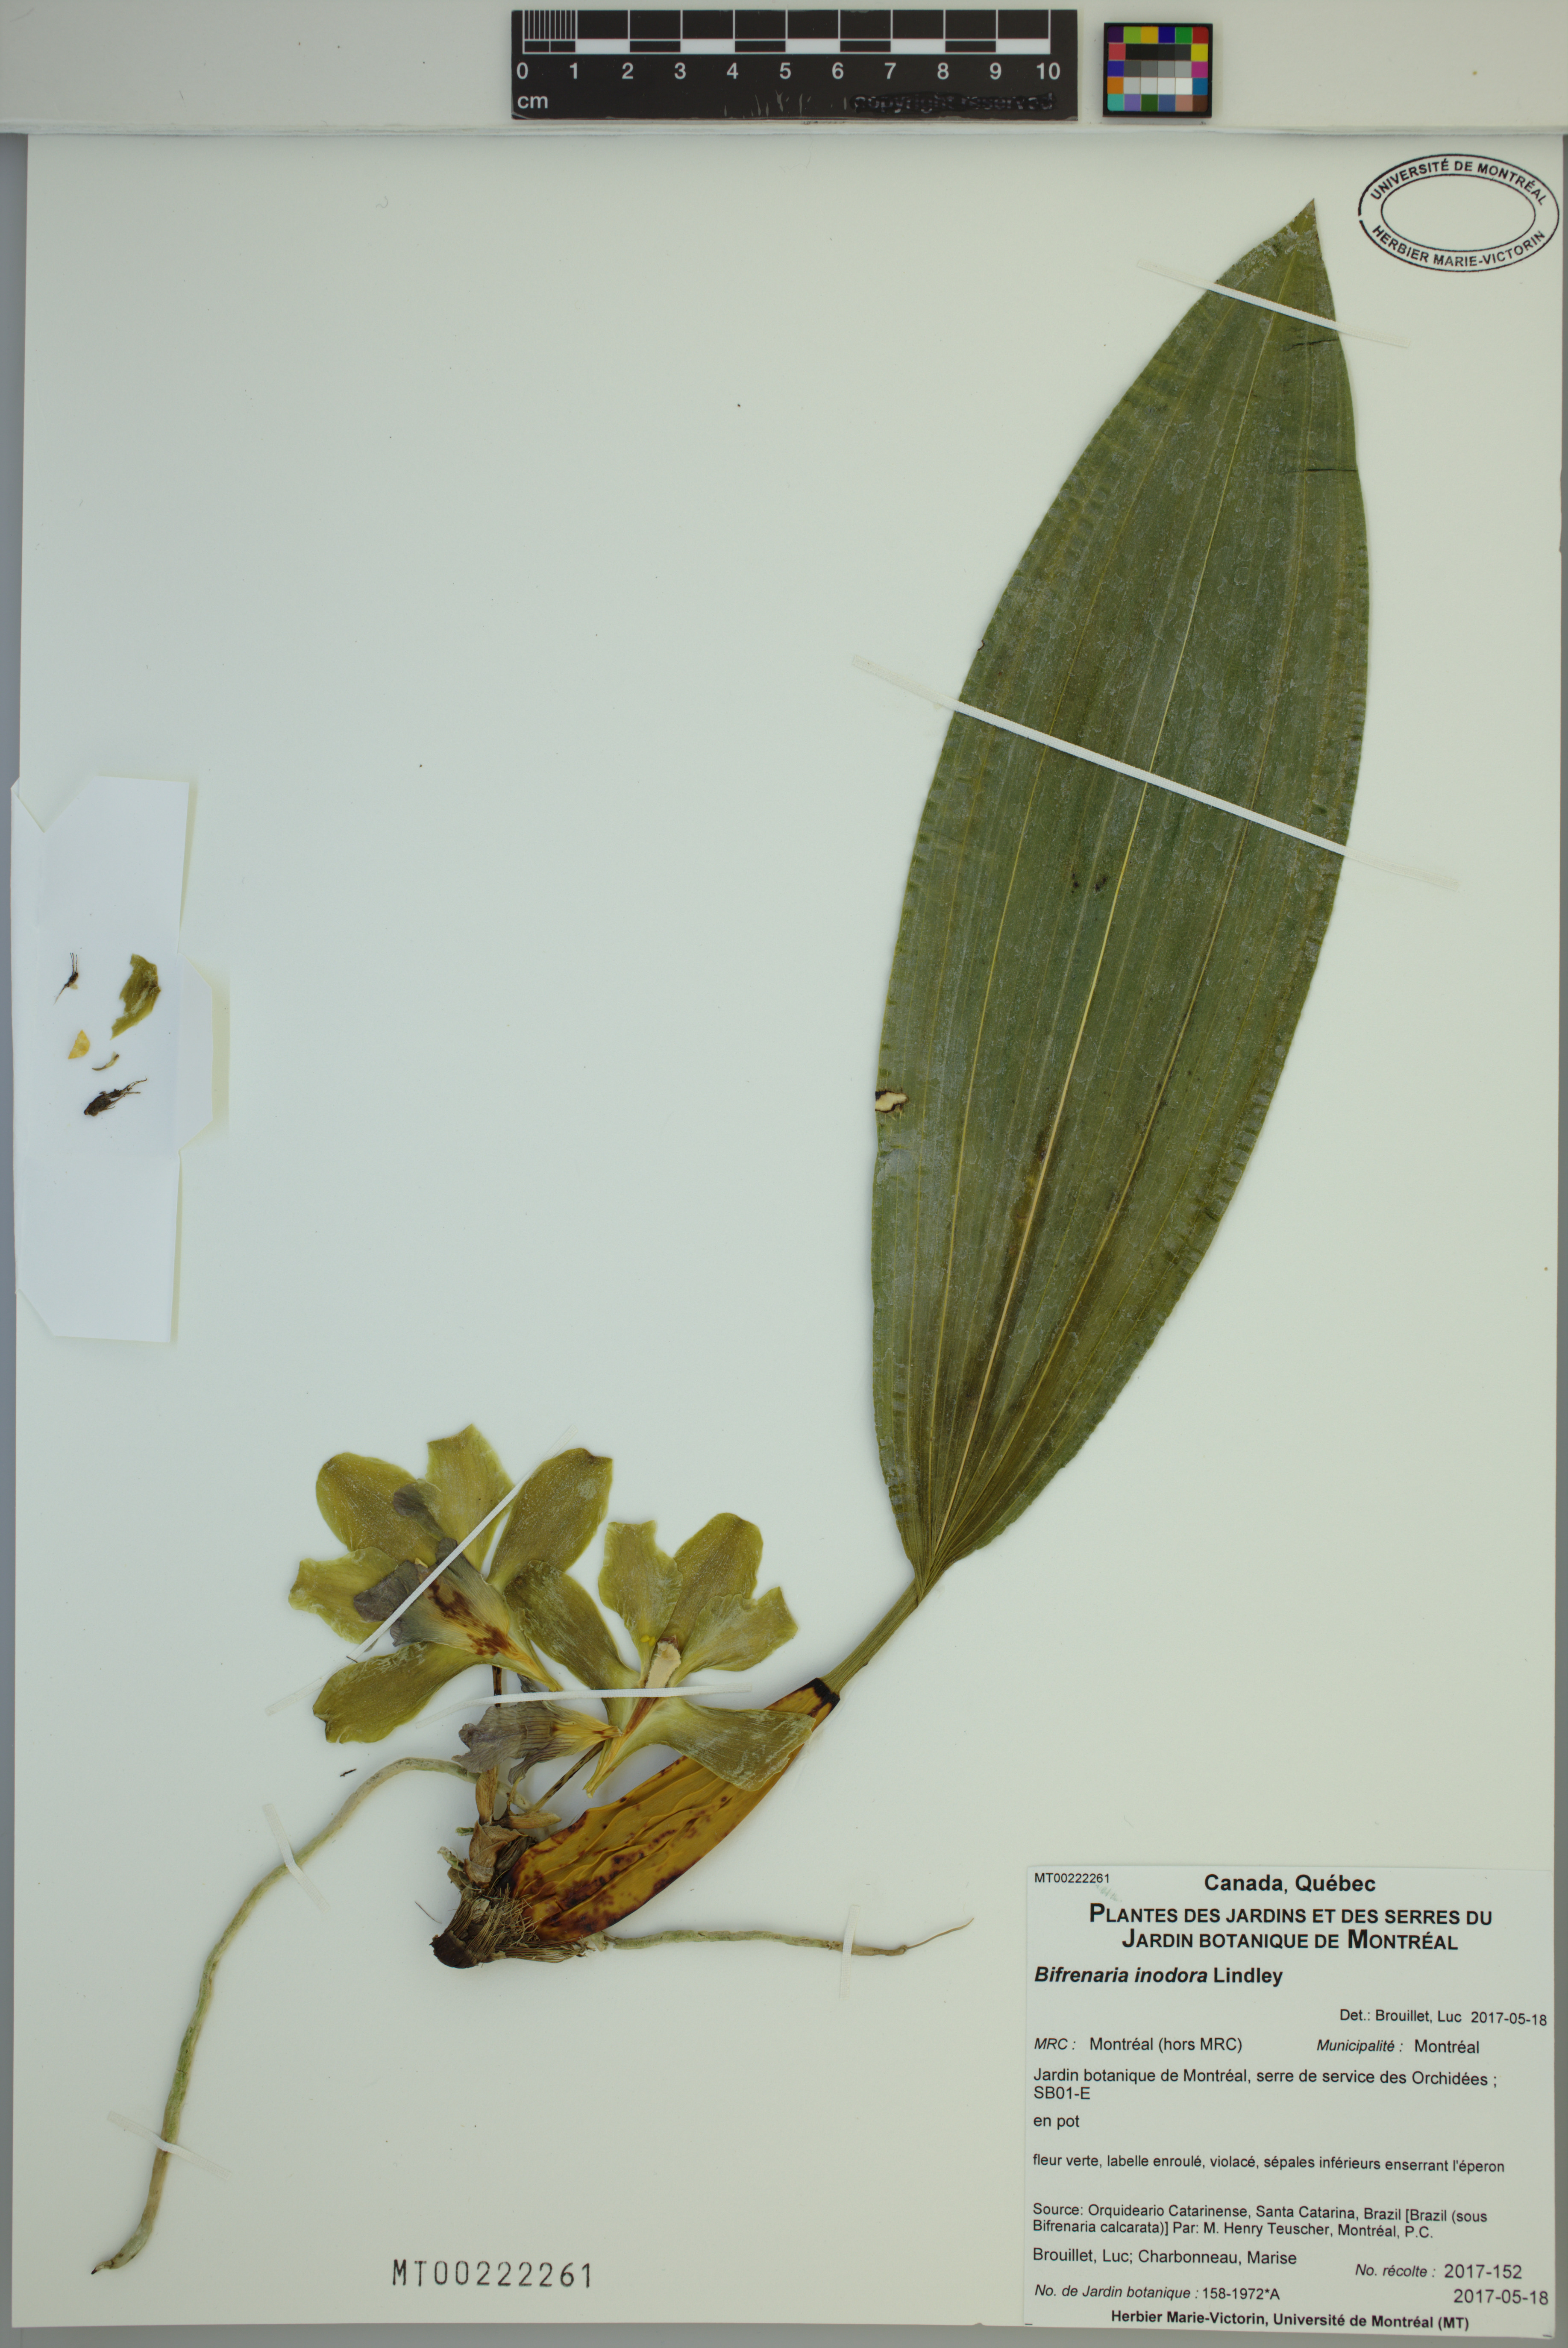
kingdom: Plantae
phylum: Tracheophyta
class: Liliopsida
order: Asparagales
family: Orchidaceae
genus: Bifrenaria
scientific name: Bifrenaria inodora
